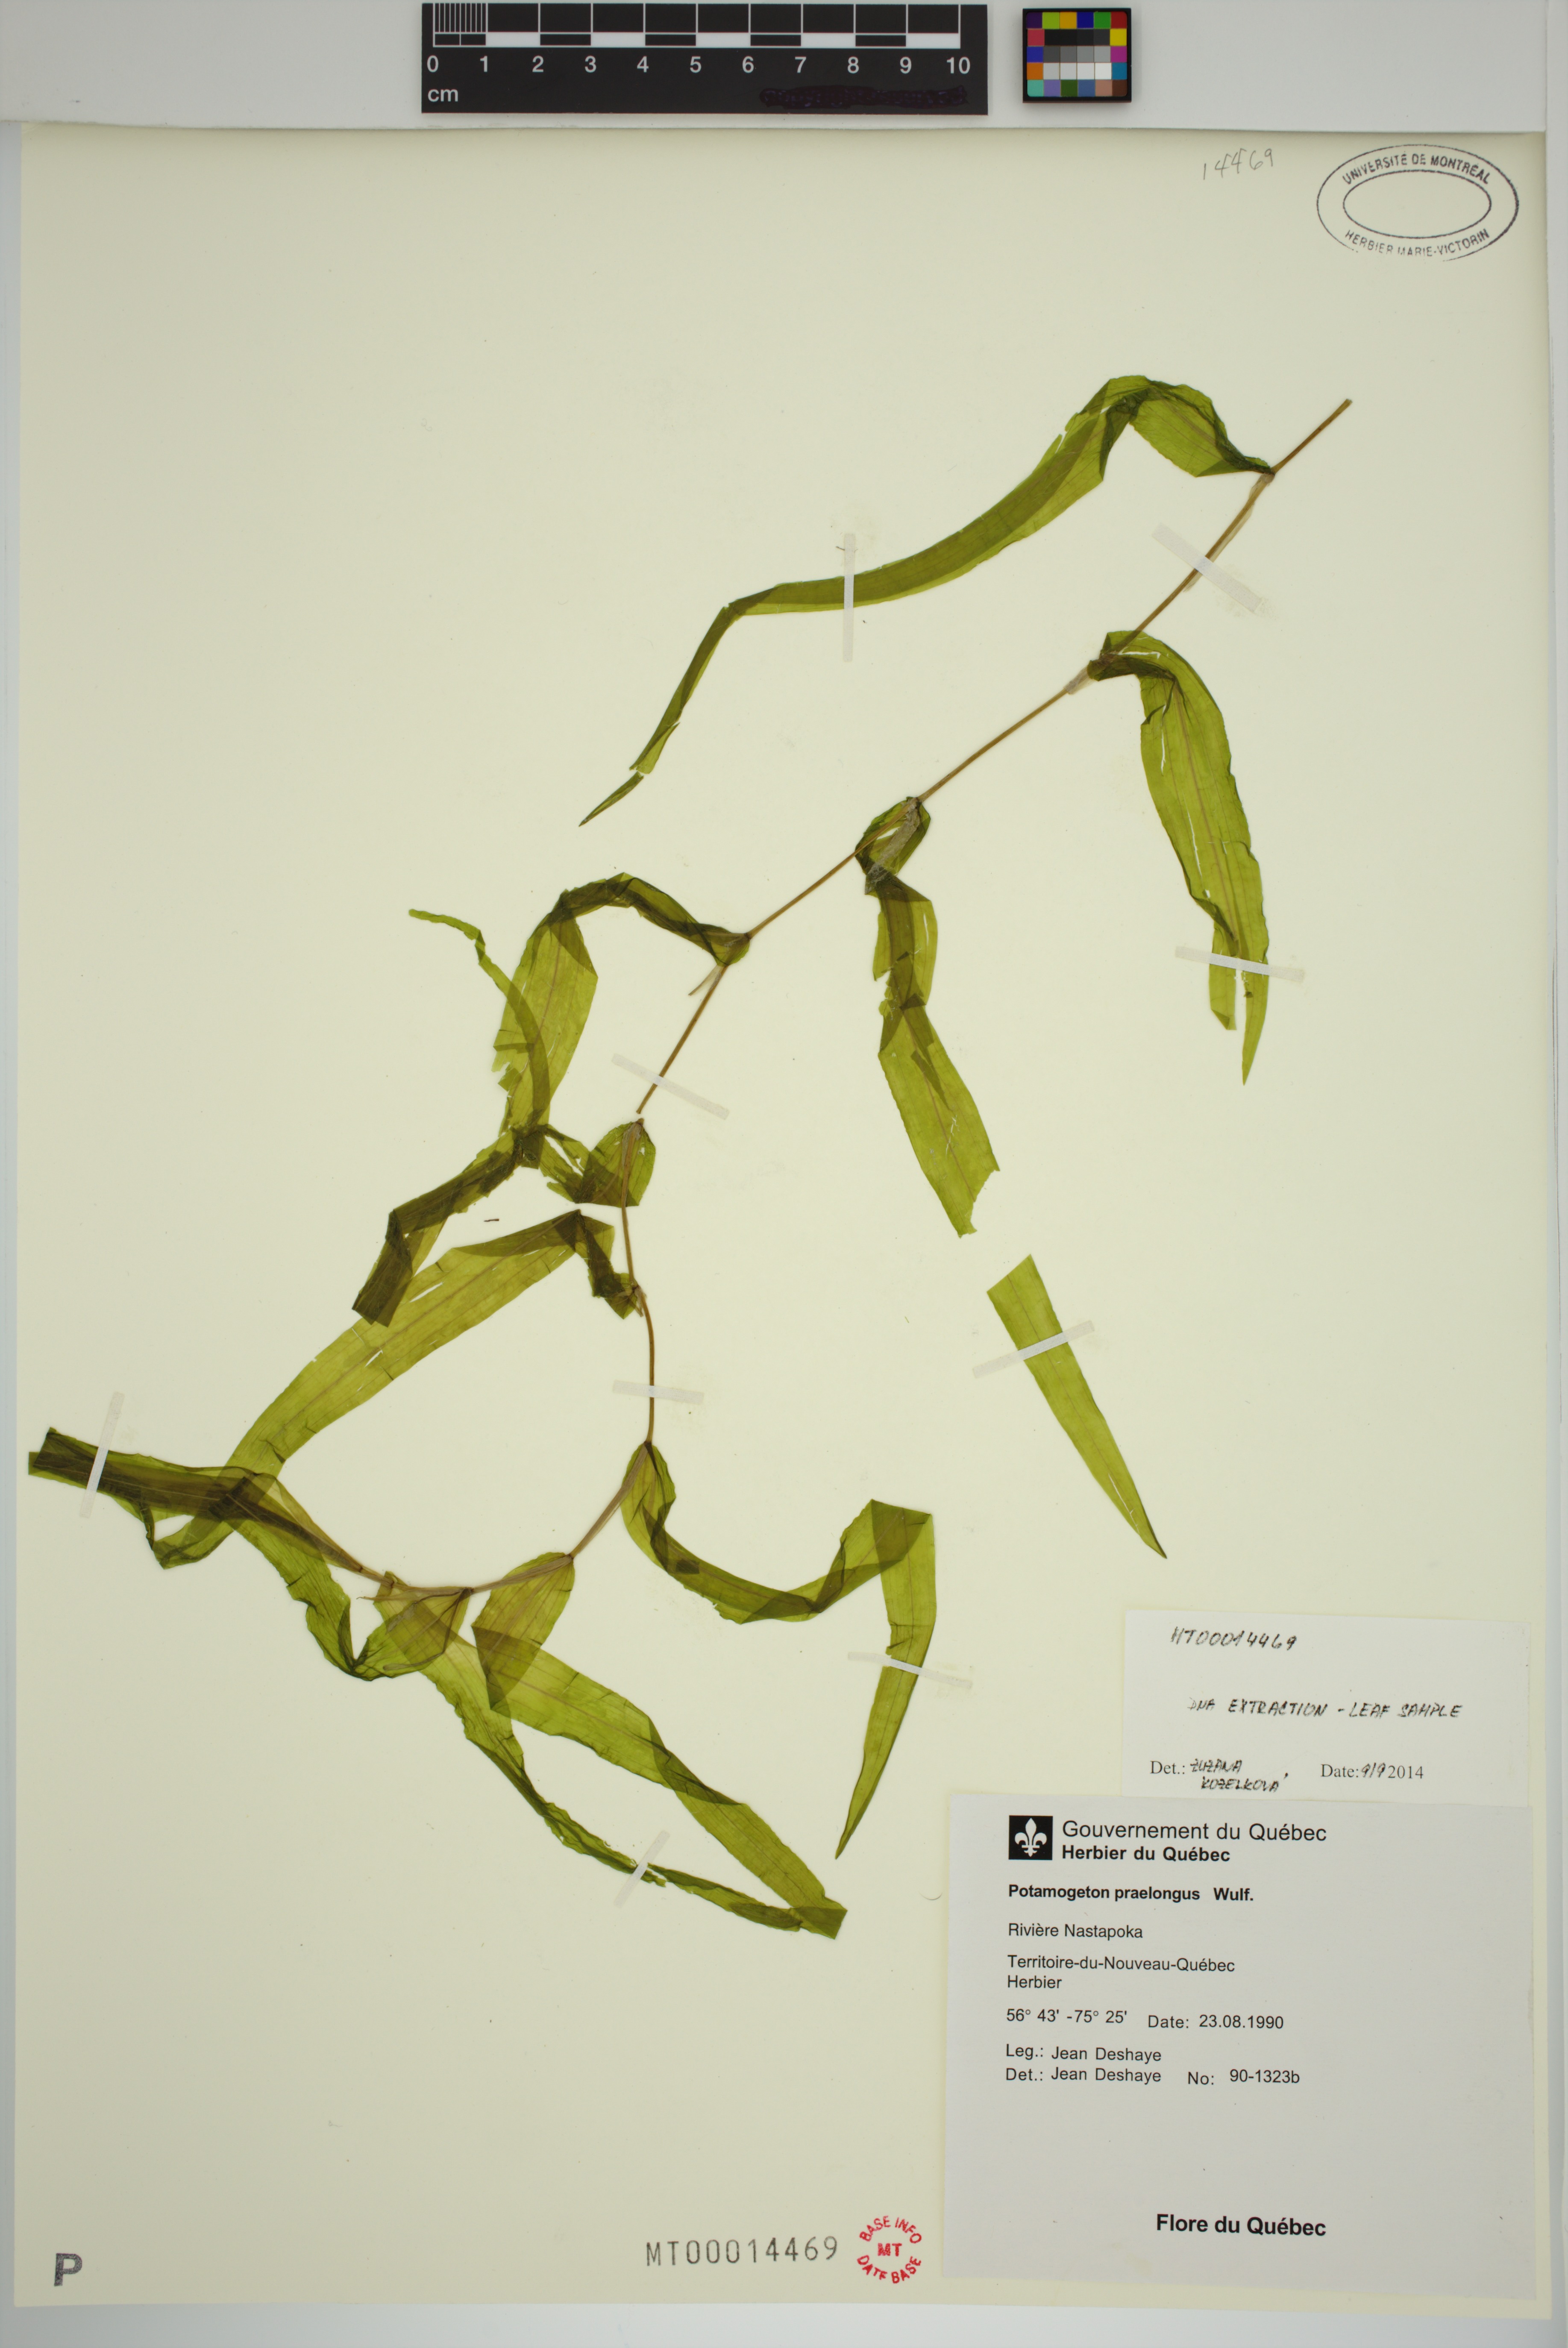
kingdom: Plantae
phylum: Tracheophyta
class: Liliopsida
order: Alismatales
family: Potamogetonaceae
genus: Potamogeton
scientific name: Potamogeton praelongus
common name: Long-stalked pondweed
